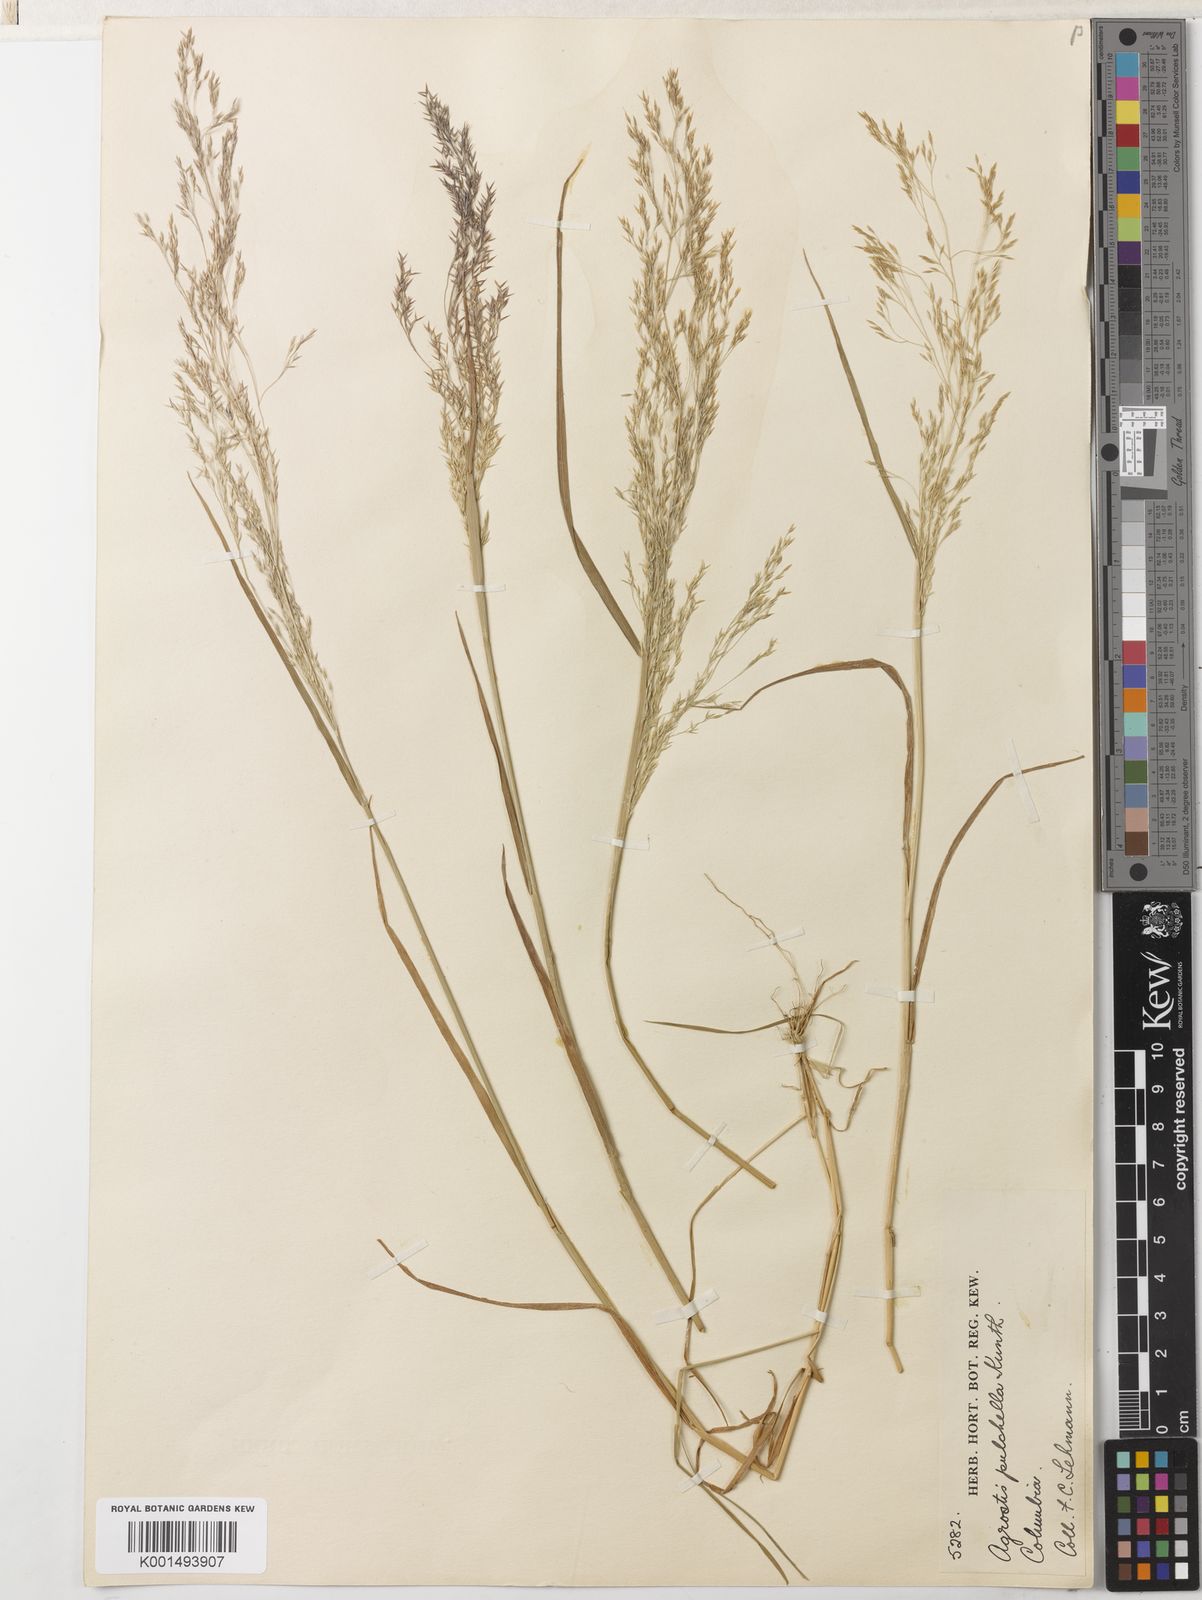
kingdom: Plantae
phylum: Tracheophyta
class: Liliopsida
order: Poales
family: Poaceae
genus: Agrostis
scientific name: Agrostis perennans
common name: Autumn bent
